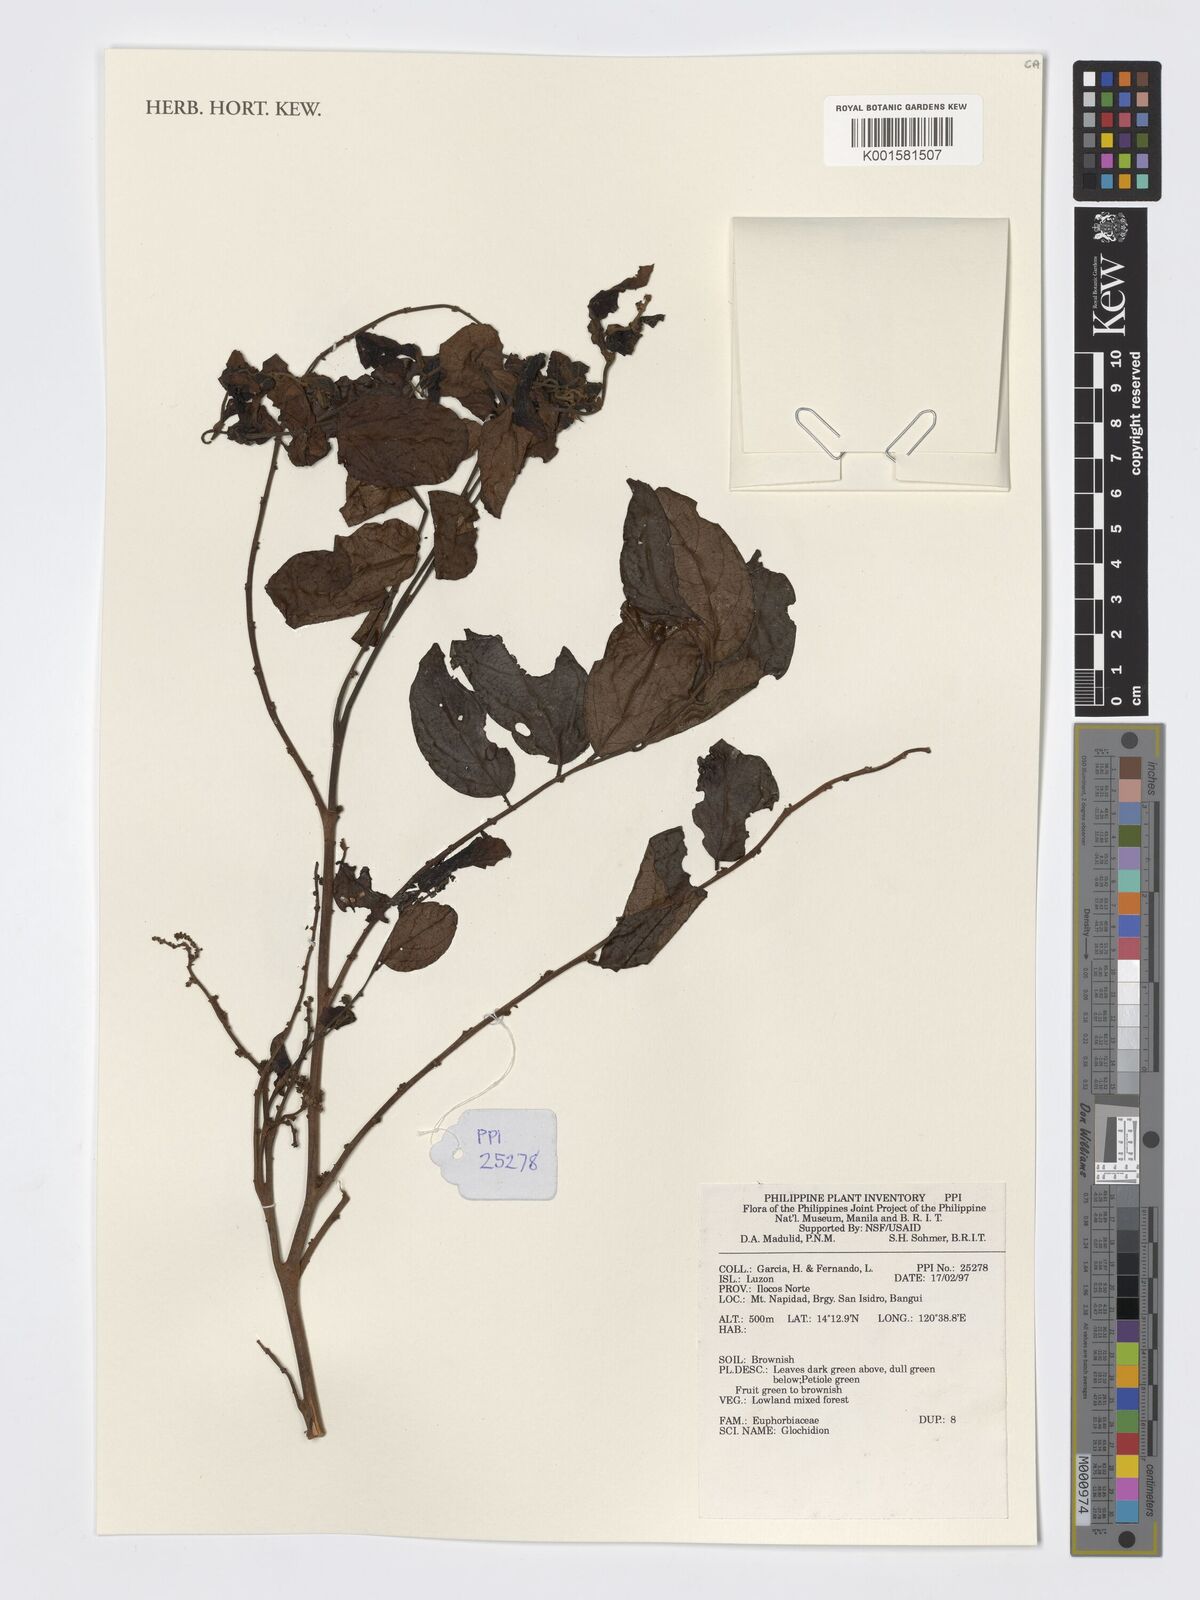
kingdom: Plantae
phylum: Tracheophyta
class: Magnoliopsida
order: Malpighiales
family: Phyllanthaceae
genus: Glochidion
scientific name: Glochidion
